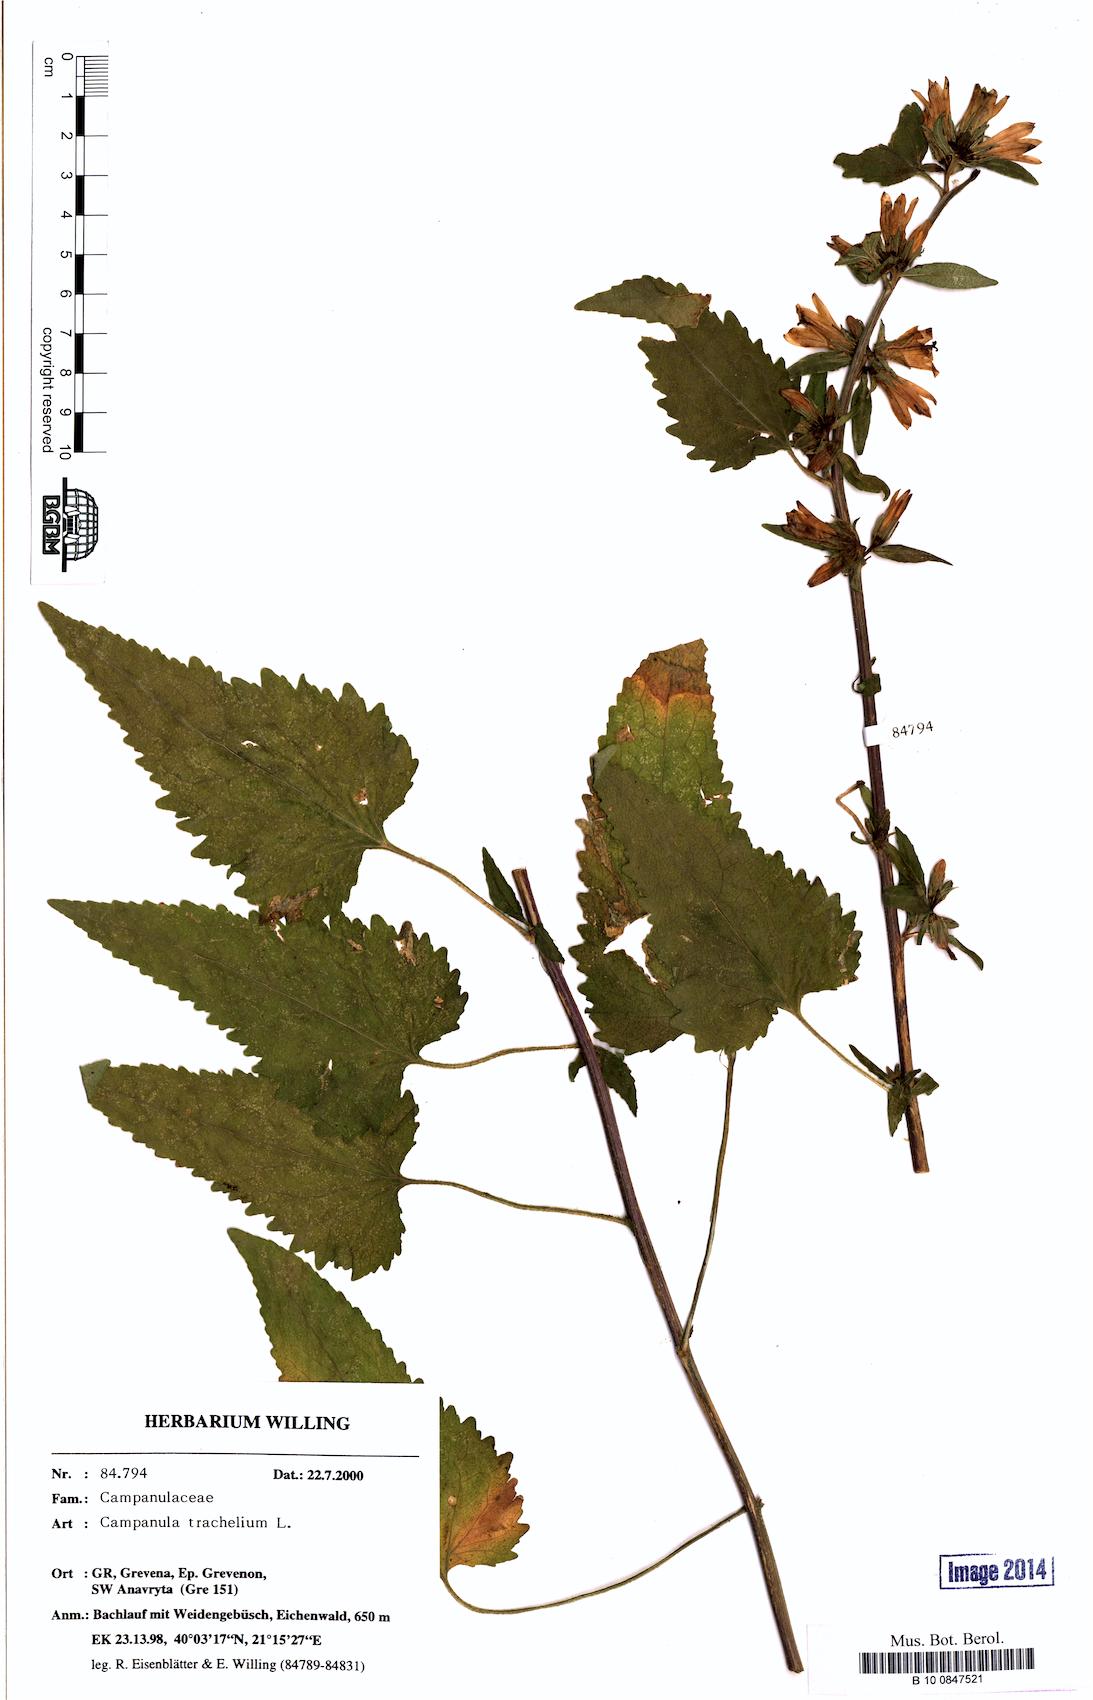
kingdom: Plantae
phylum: Tracheophyta
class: Magnoliopsida
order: Asterales
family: Campanulaceae
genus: Campanula
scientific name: Campanula trachelium
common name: Nettle-leaved bellflower
